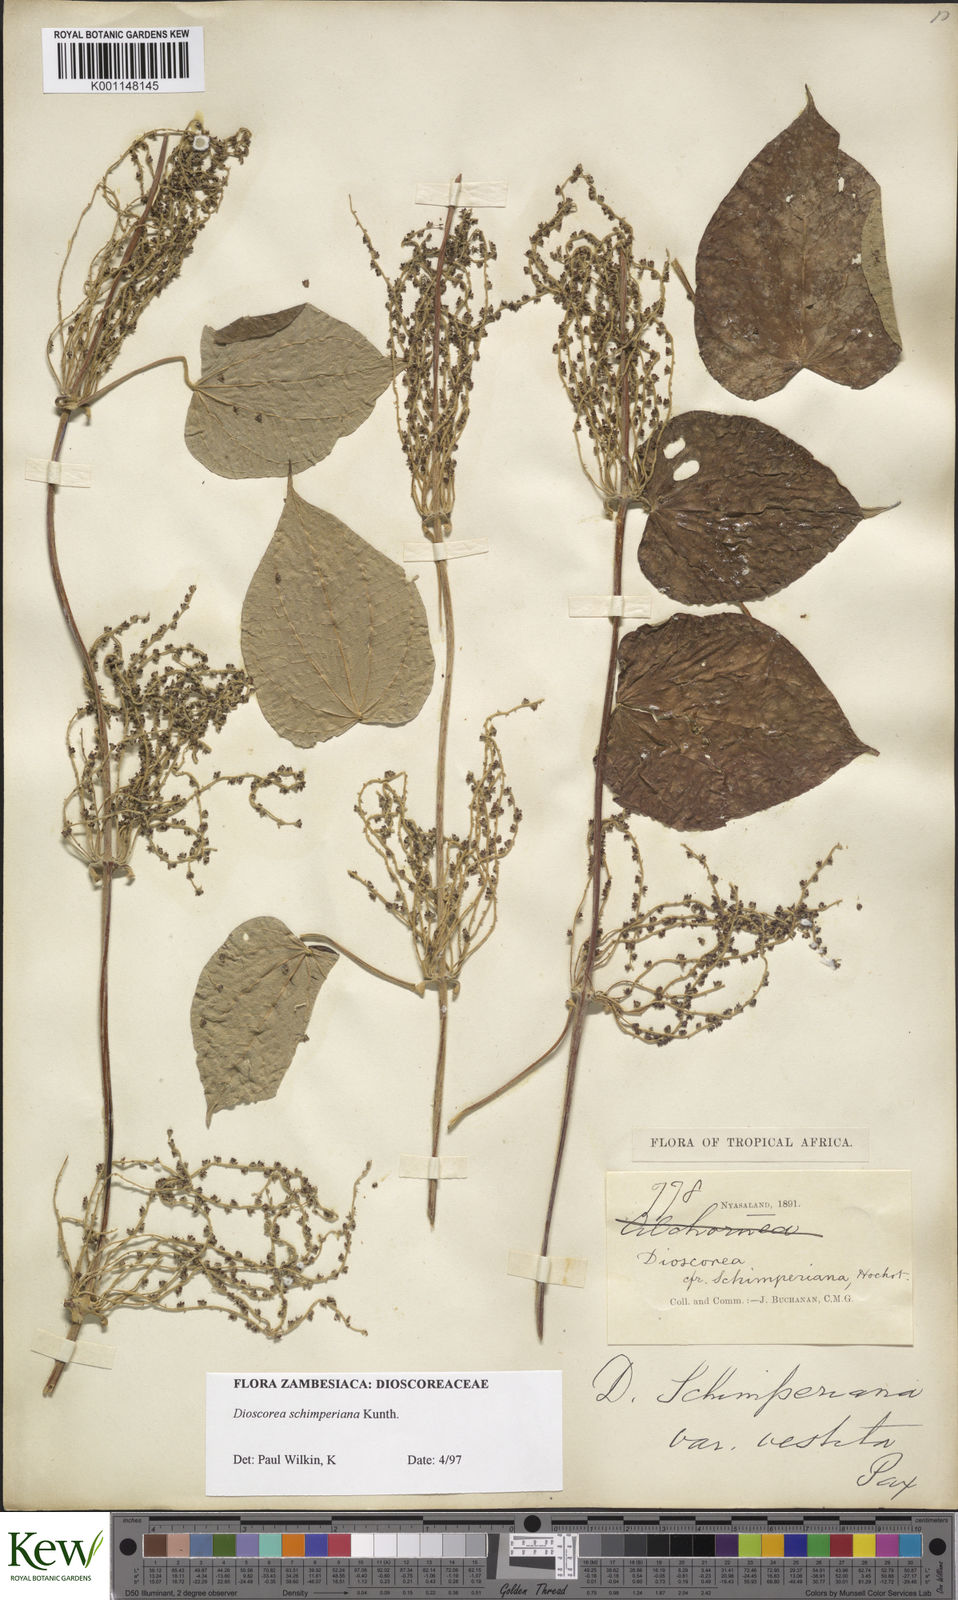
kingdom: Plantae
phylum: Tracheophyta
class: Liliopsida
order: Dioscoreales
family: Dioscoreaceae
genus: Dioscorea
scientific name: Dioscorea schimperiana
